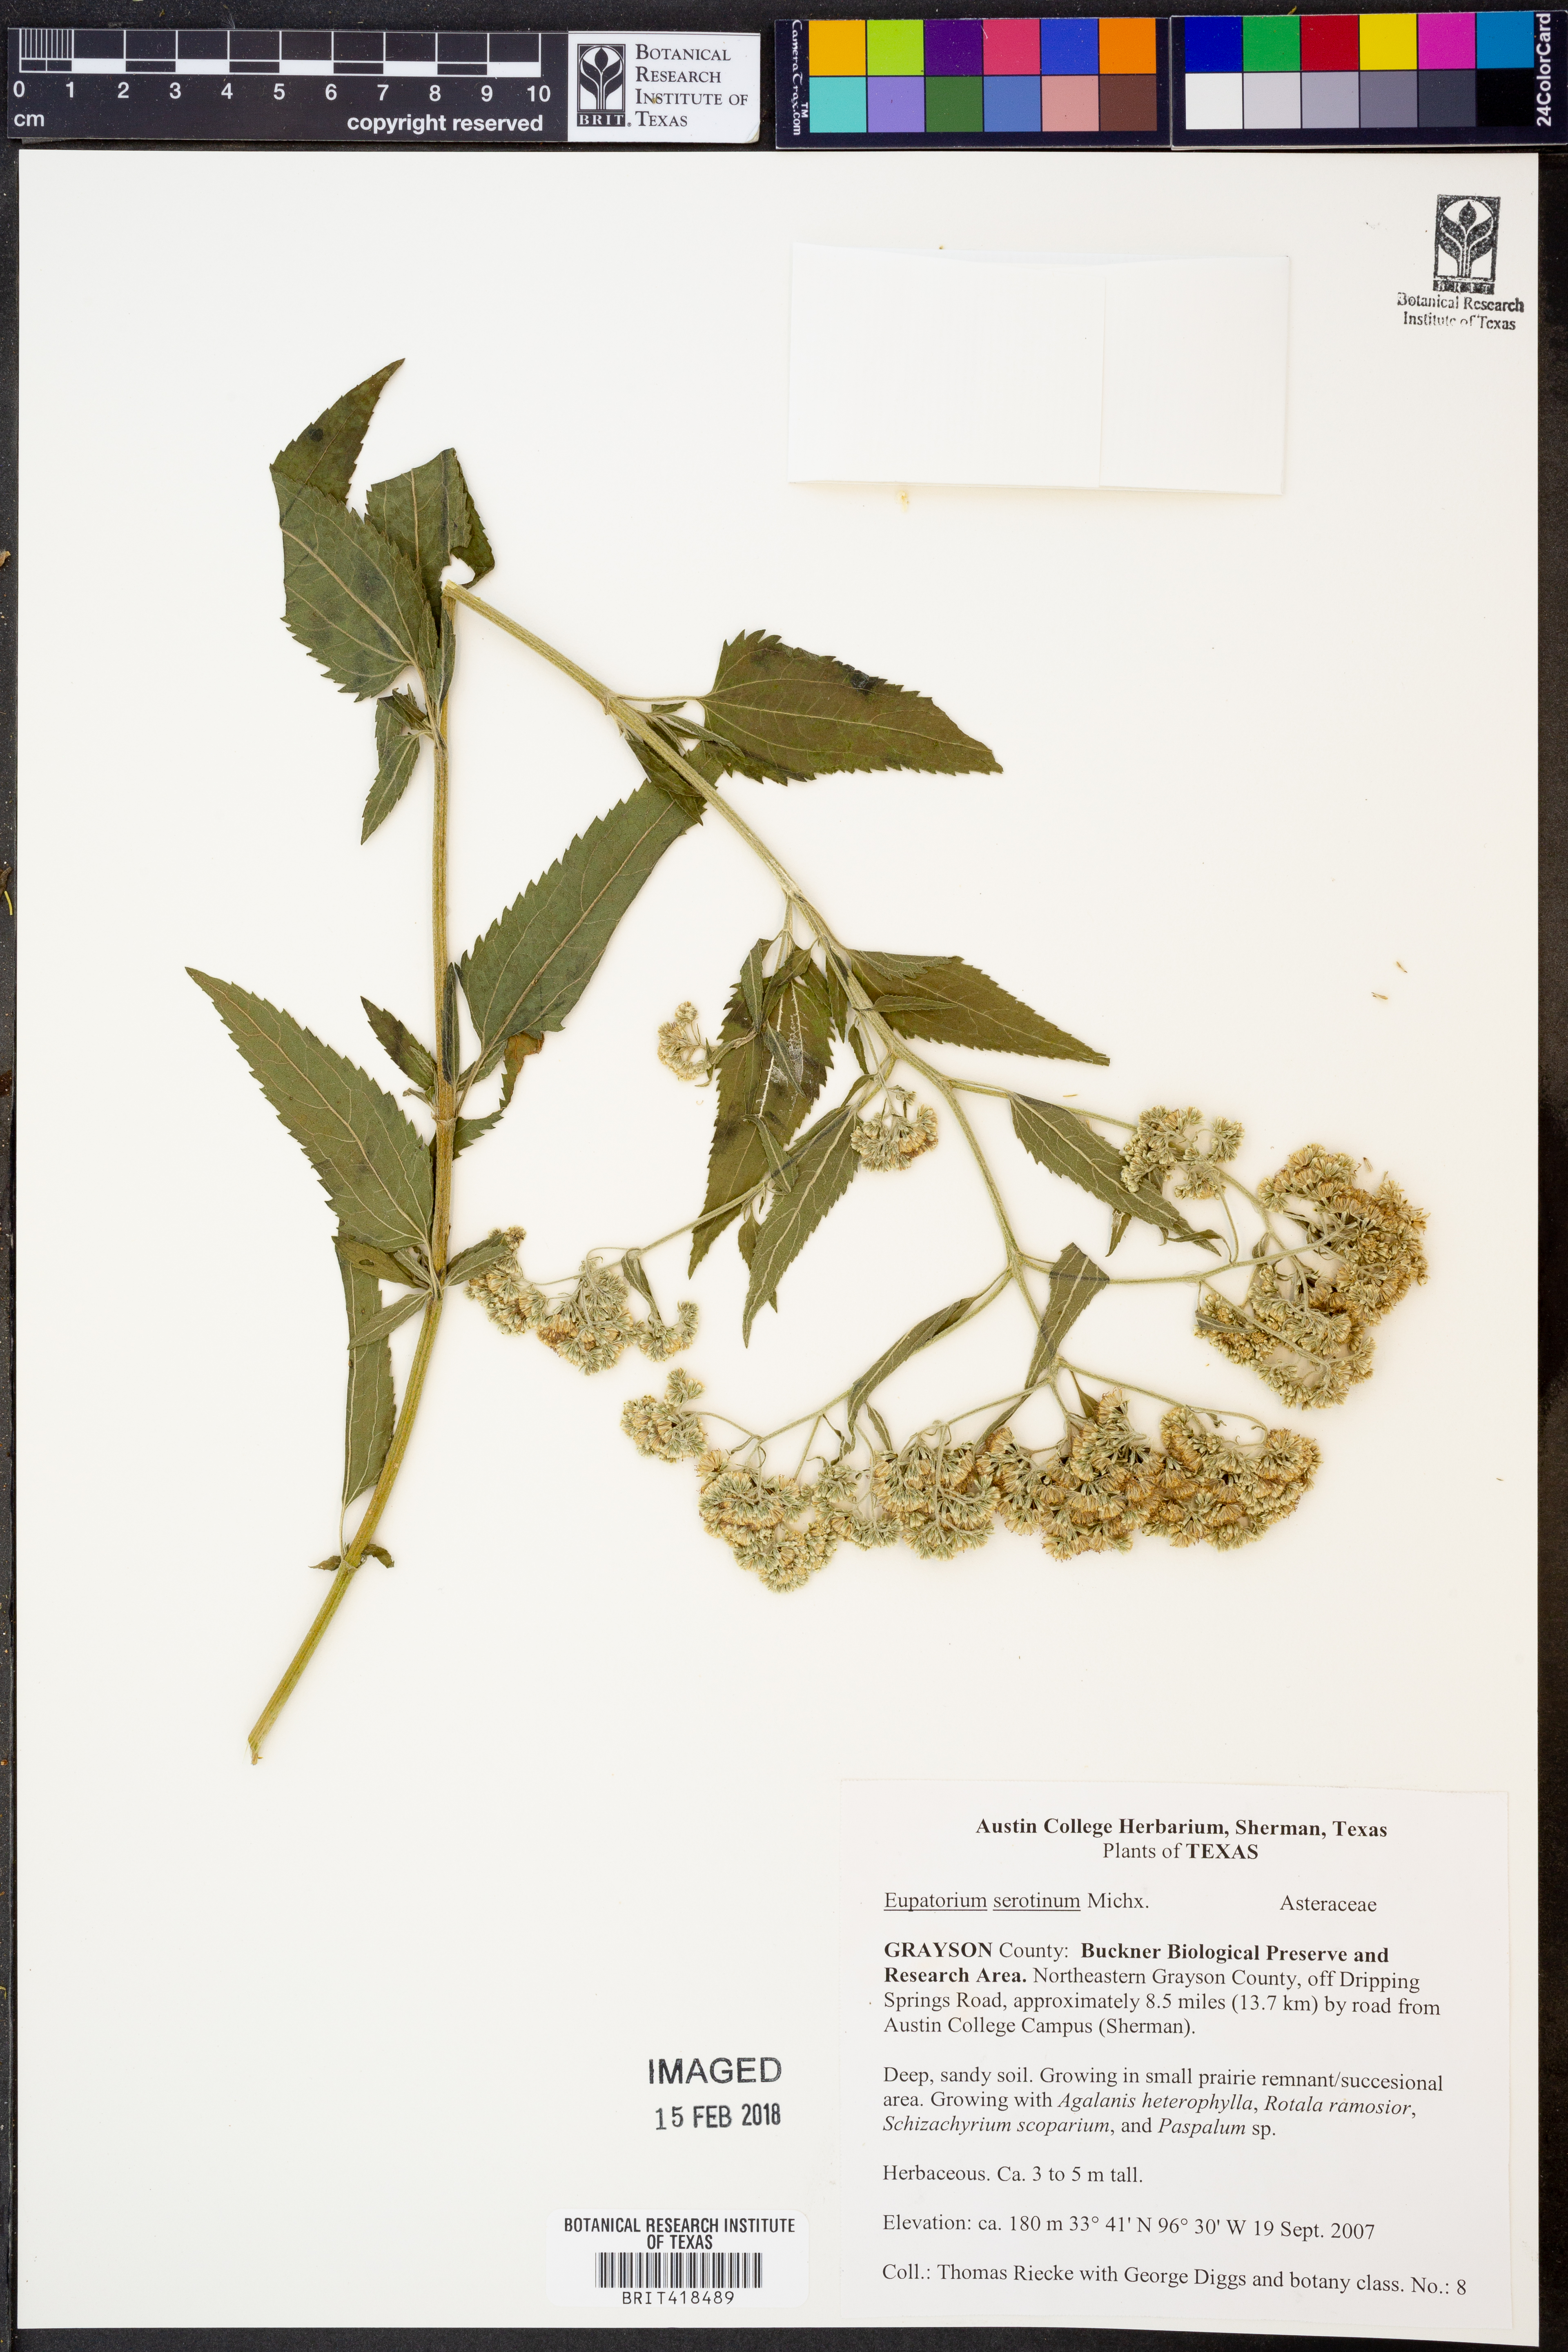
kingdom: Plantae
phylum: Tracheophyta
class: Magnoliopsida
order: Asterales
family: Asteraceae
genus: Eupatorium
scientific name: Eupatorium serotinum
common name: Late boneset
